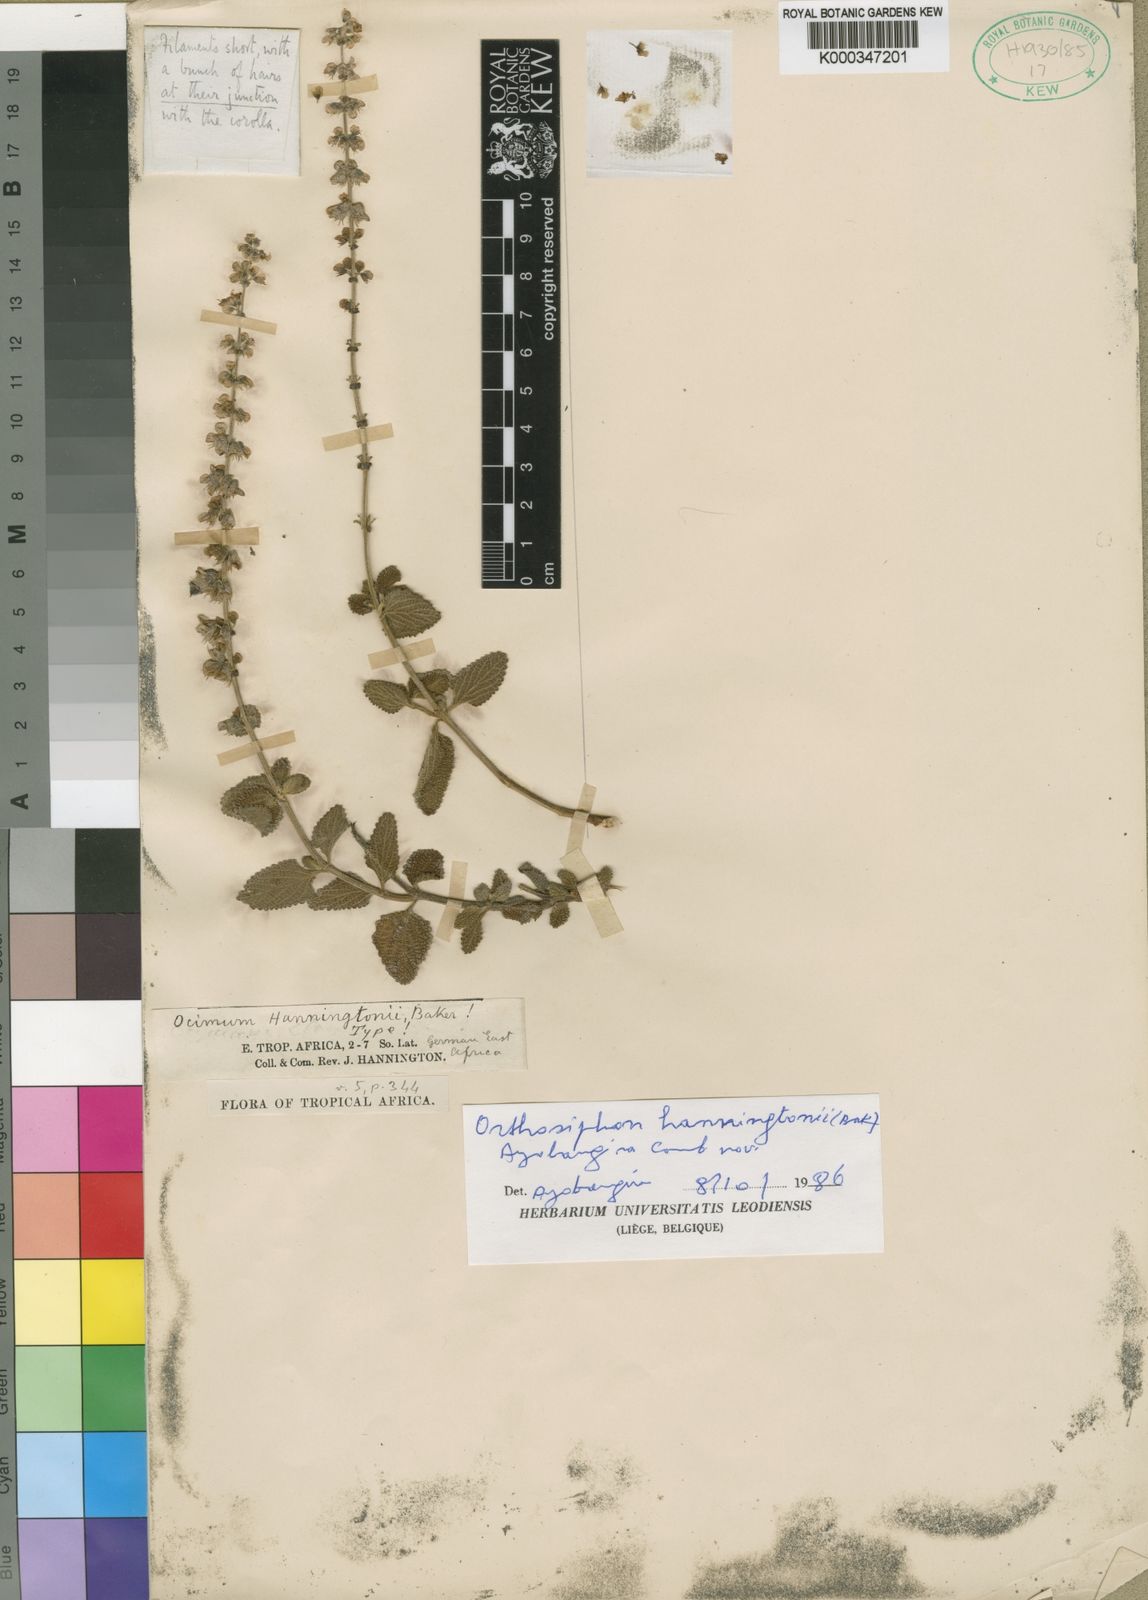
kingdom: Plantae
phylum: Tracheophyta
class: Magnoliopsida
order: Lamiales
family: Lamiaceae
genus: Orthosiphon
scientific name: Orthosiphon hanningtonii
